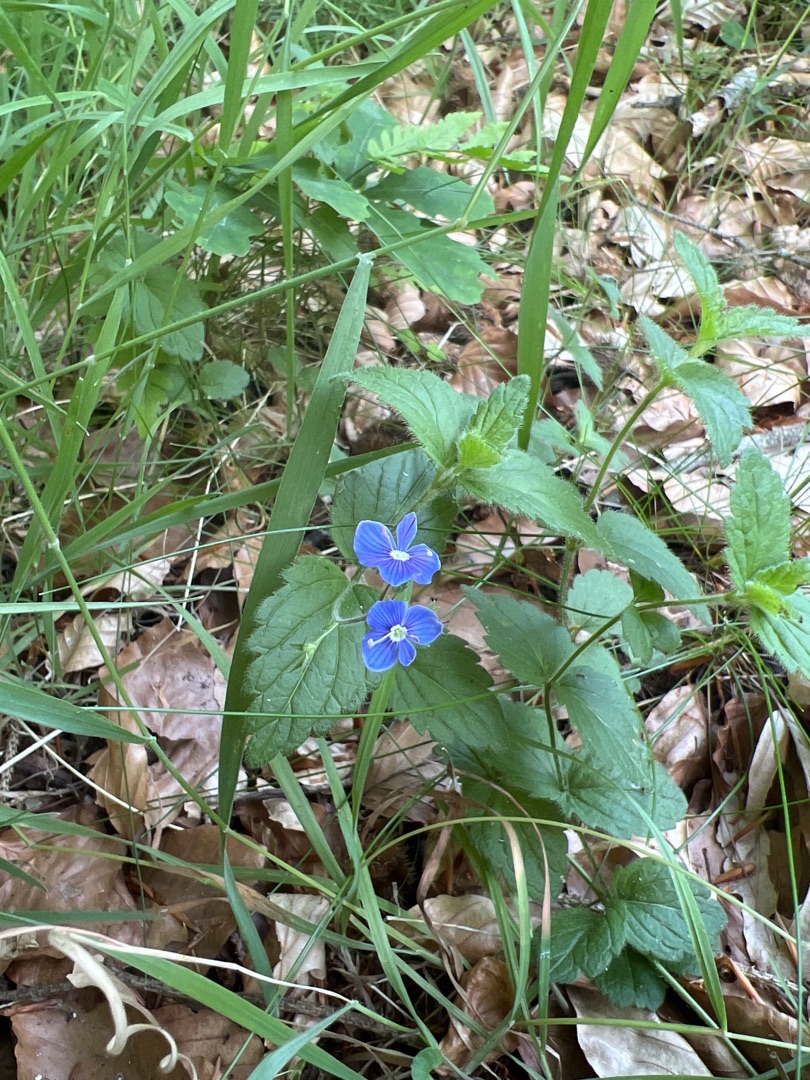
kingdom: Plantae
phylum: Tracheophyta
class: Magnoliopsida
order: Lamiales
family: Plantaginaceae
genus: Veronica
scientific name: Veronica chamaedrys
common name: Tveskægget ærenpris
